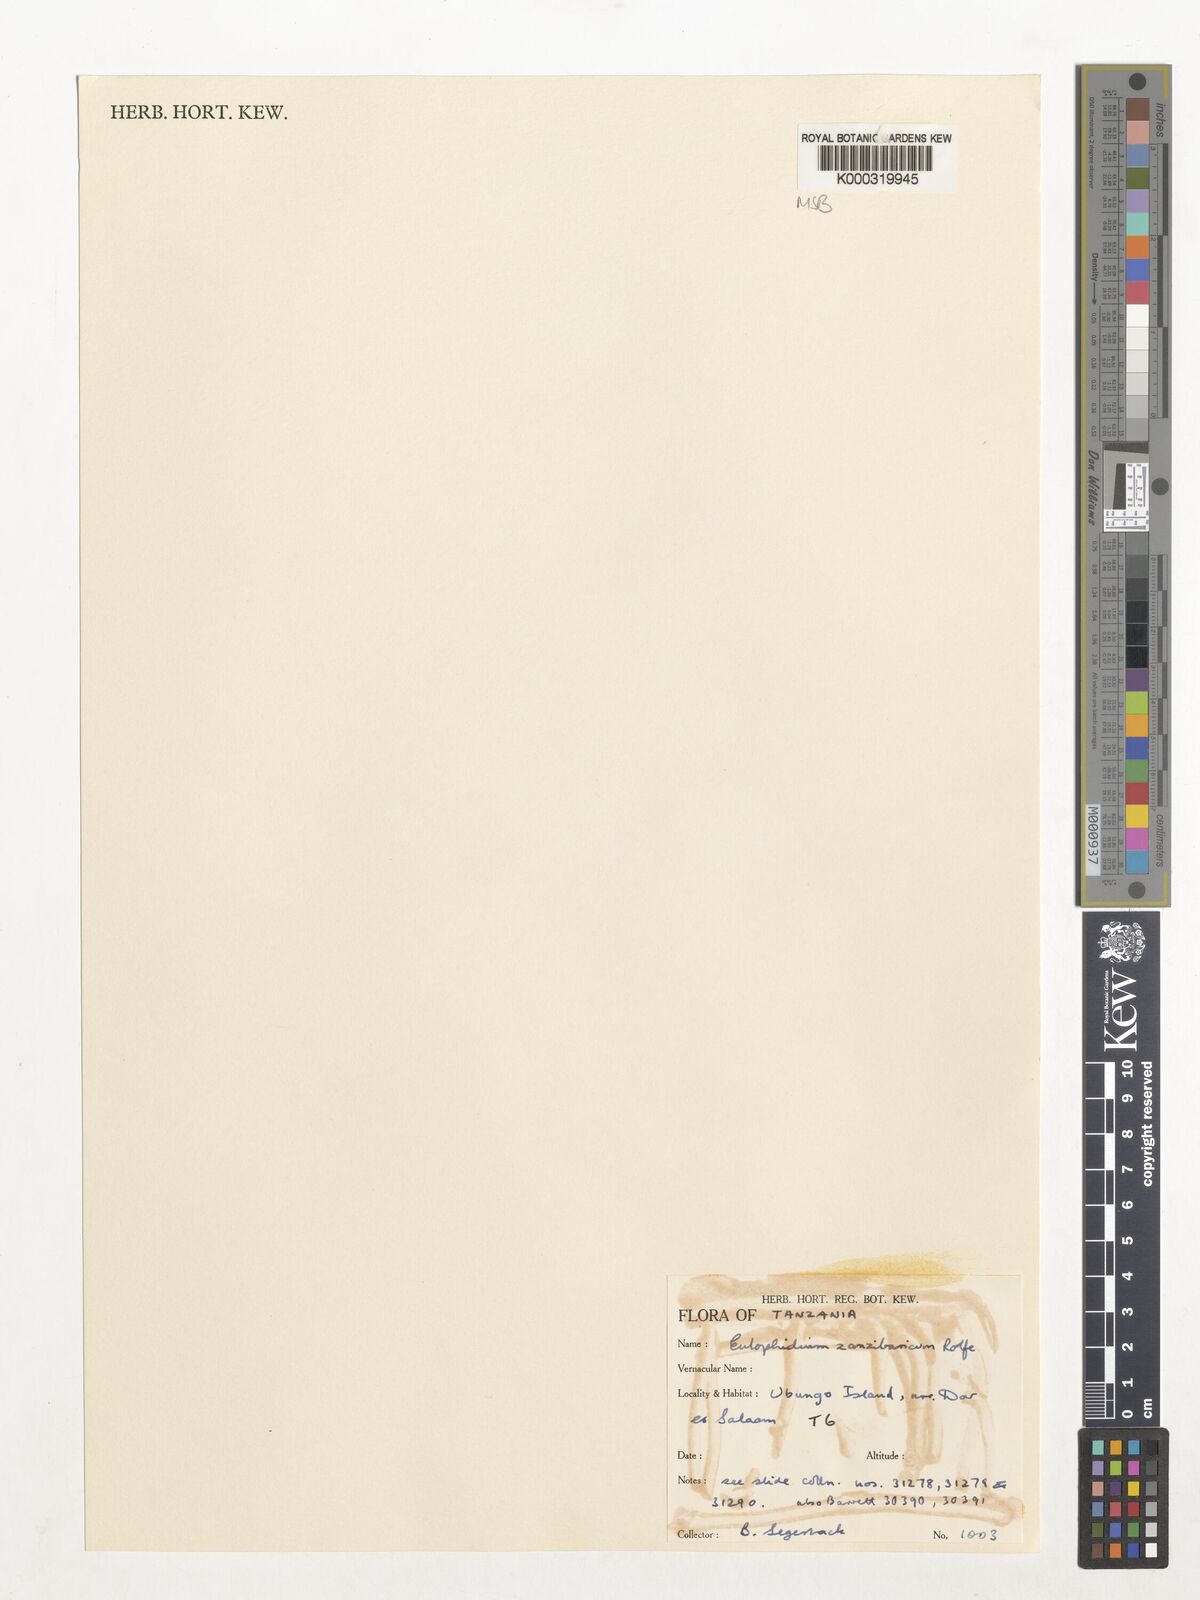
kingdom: Plantae
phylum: Tracheophyta
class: Liliopsida
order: Asparagales
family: Orchidaceae
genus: Eulophia
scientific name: Eulophia zanzibarica
